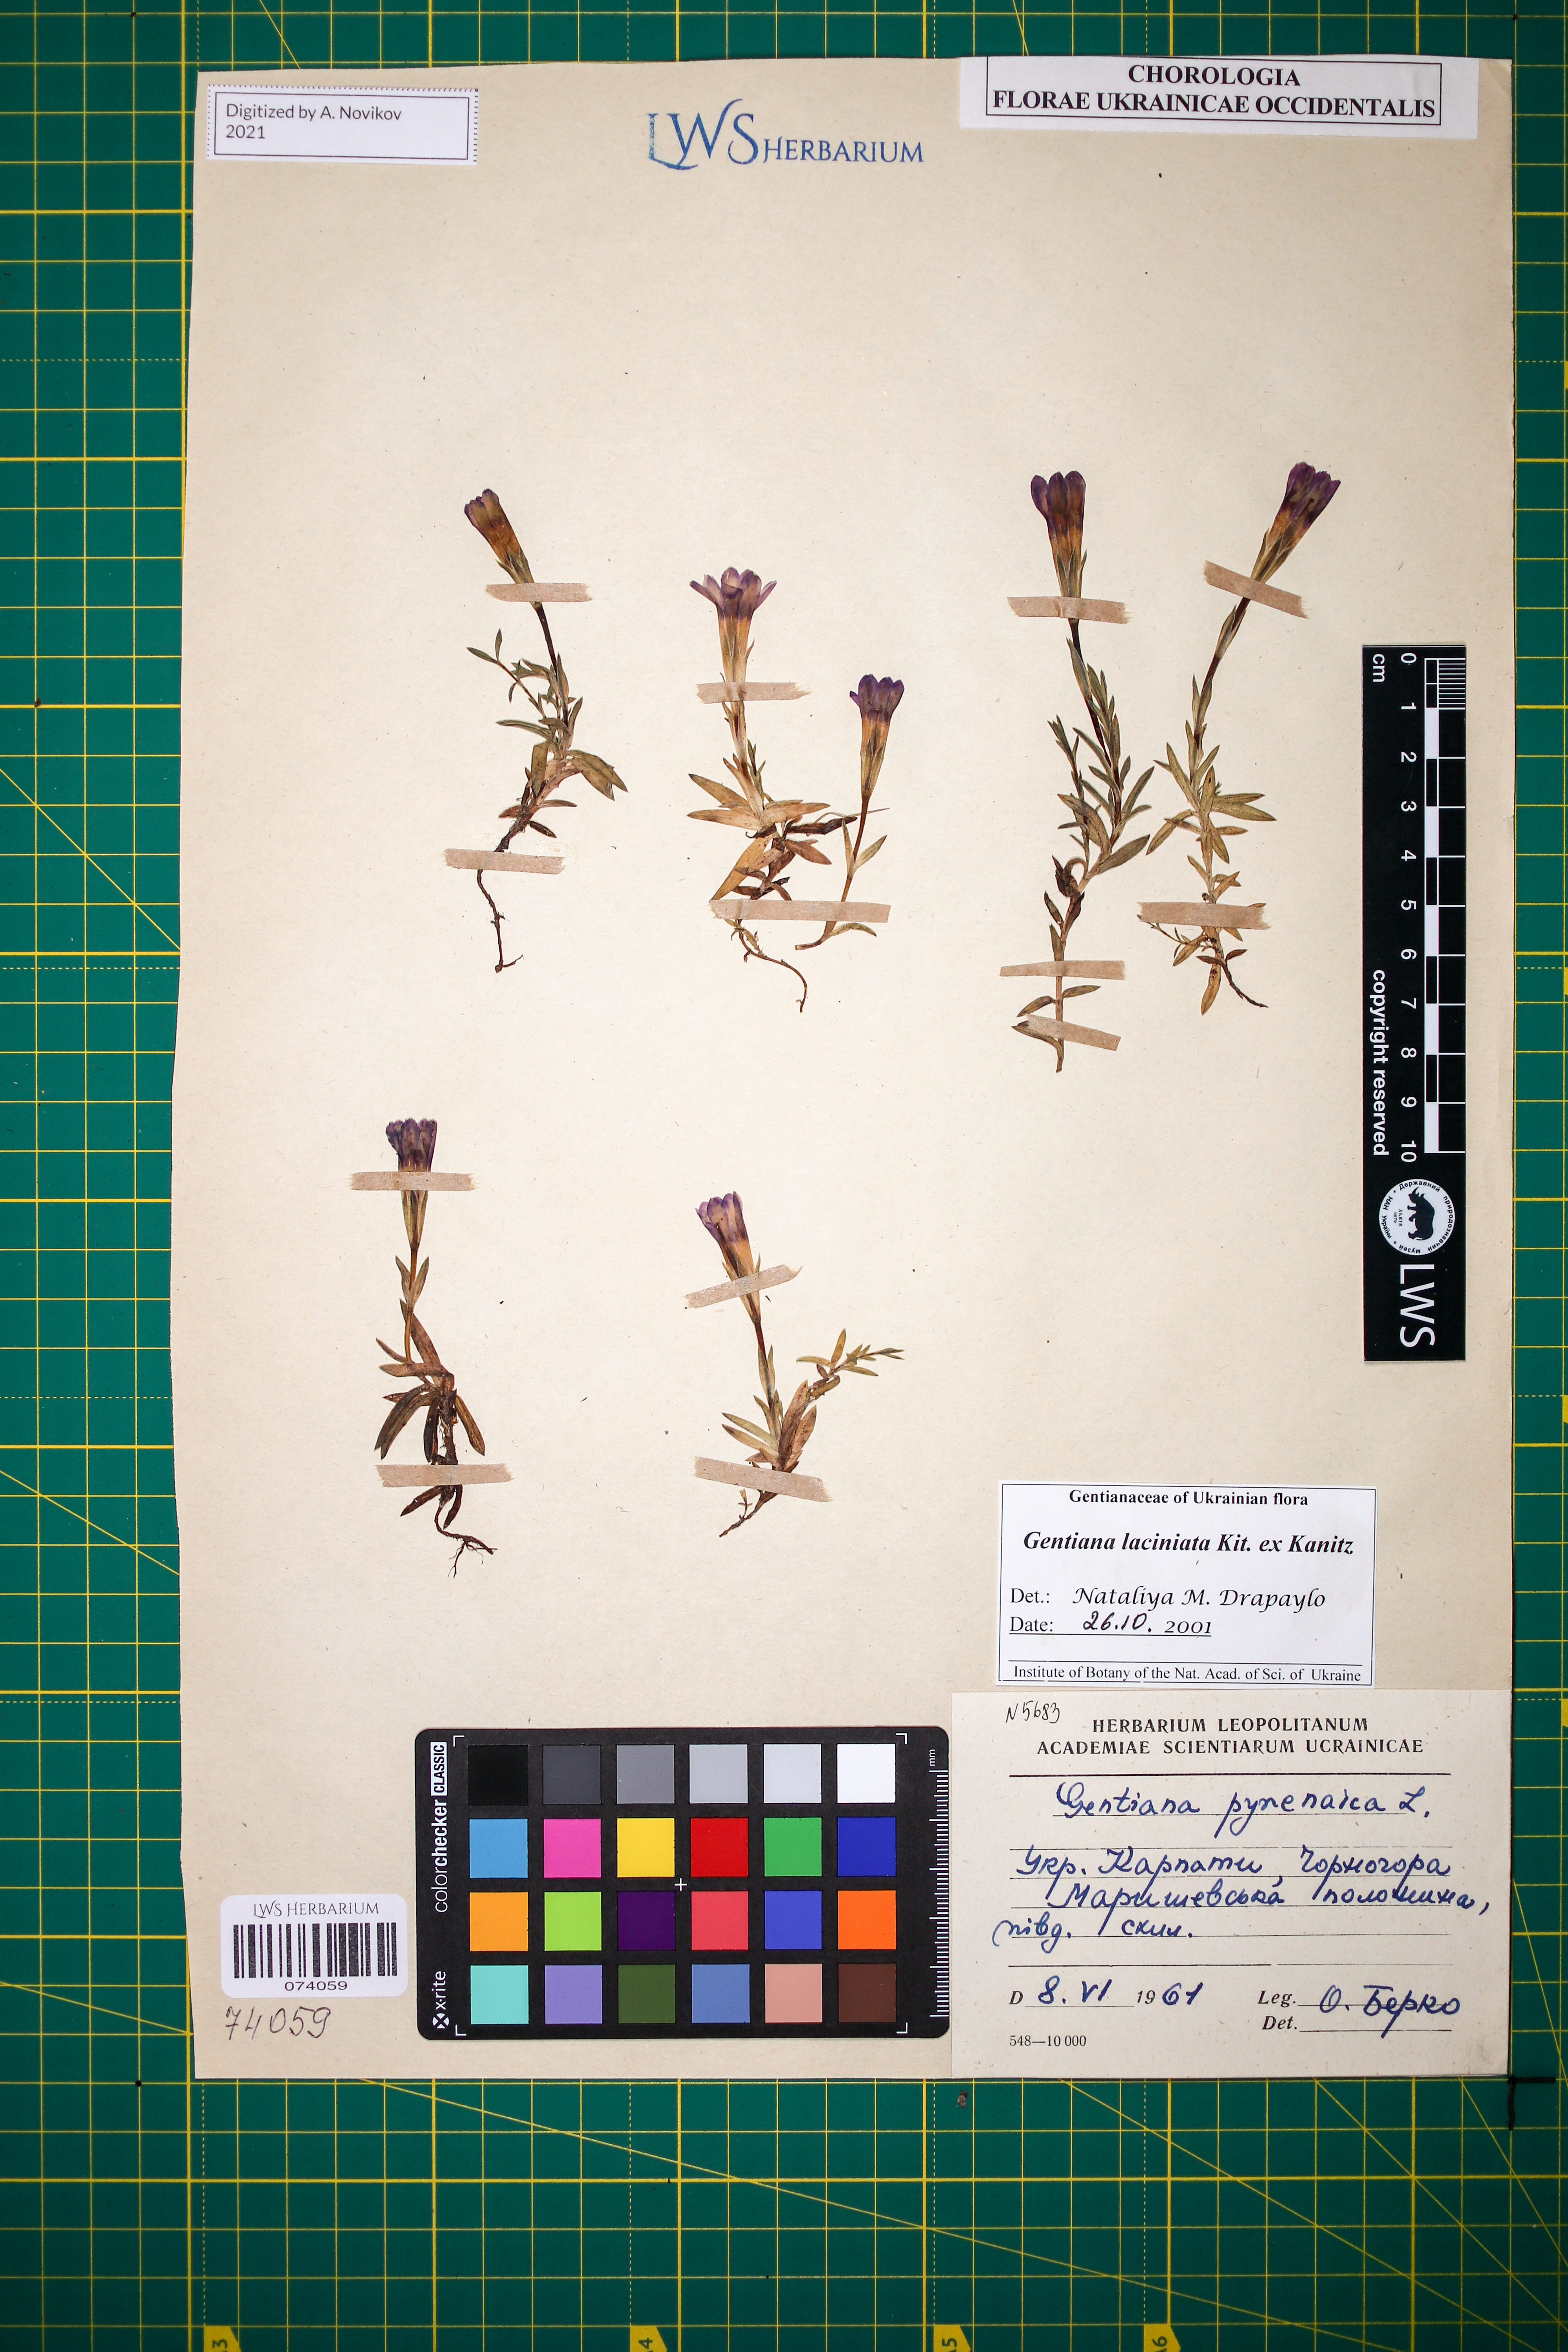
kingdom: Plantae
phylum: Tracheophyta
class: Magnoliopsida
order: Gentianales
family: Gentianaceae
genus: Gentiana
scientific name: Gentiana laciniata
